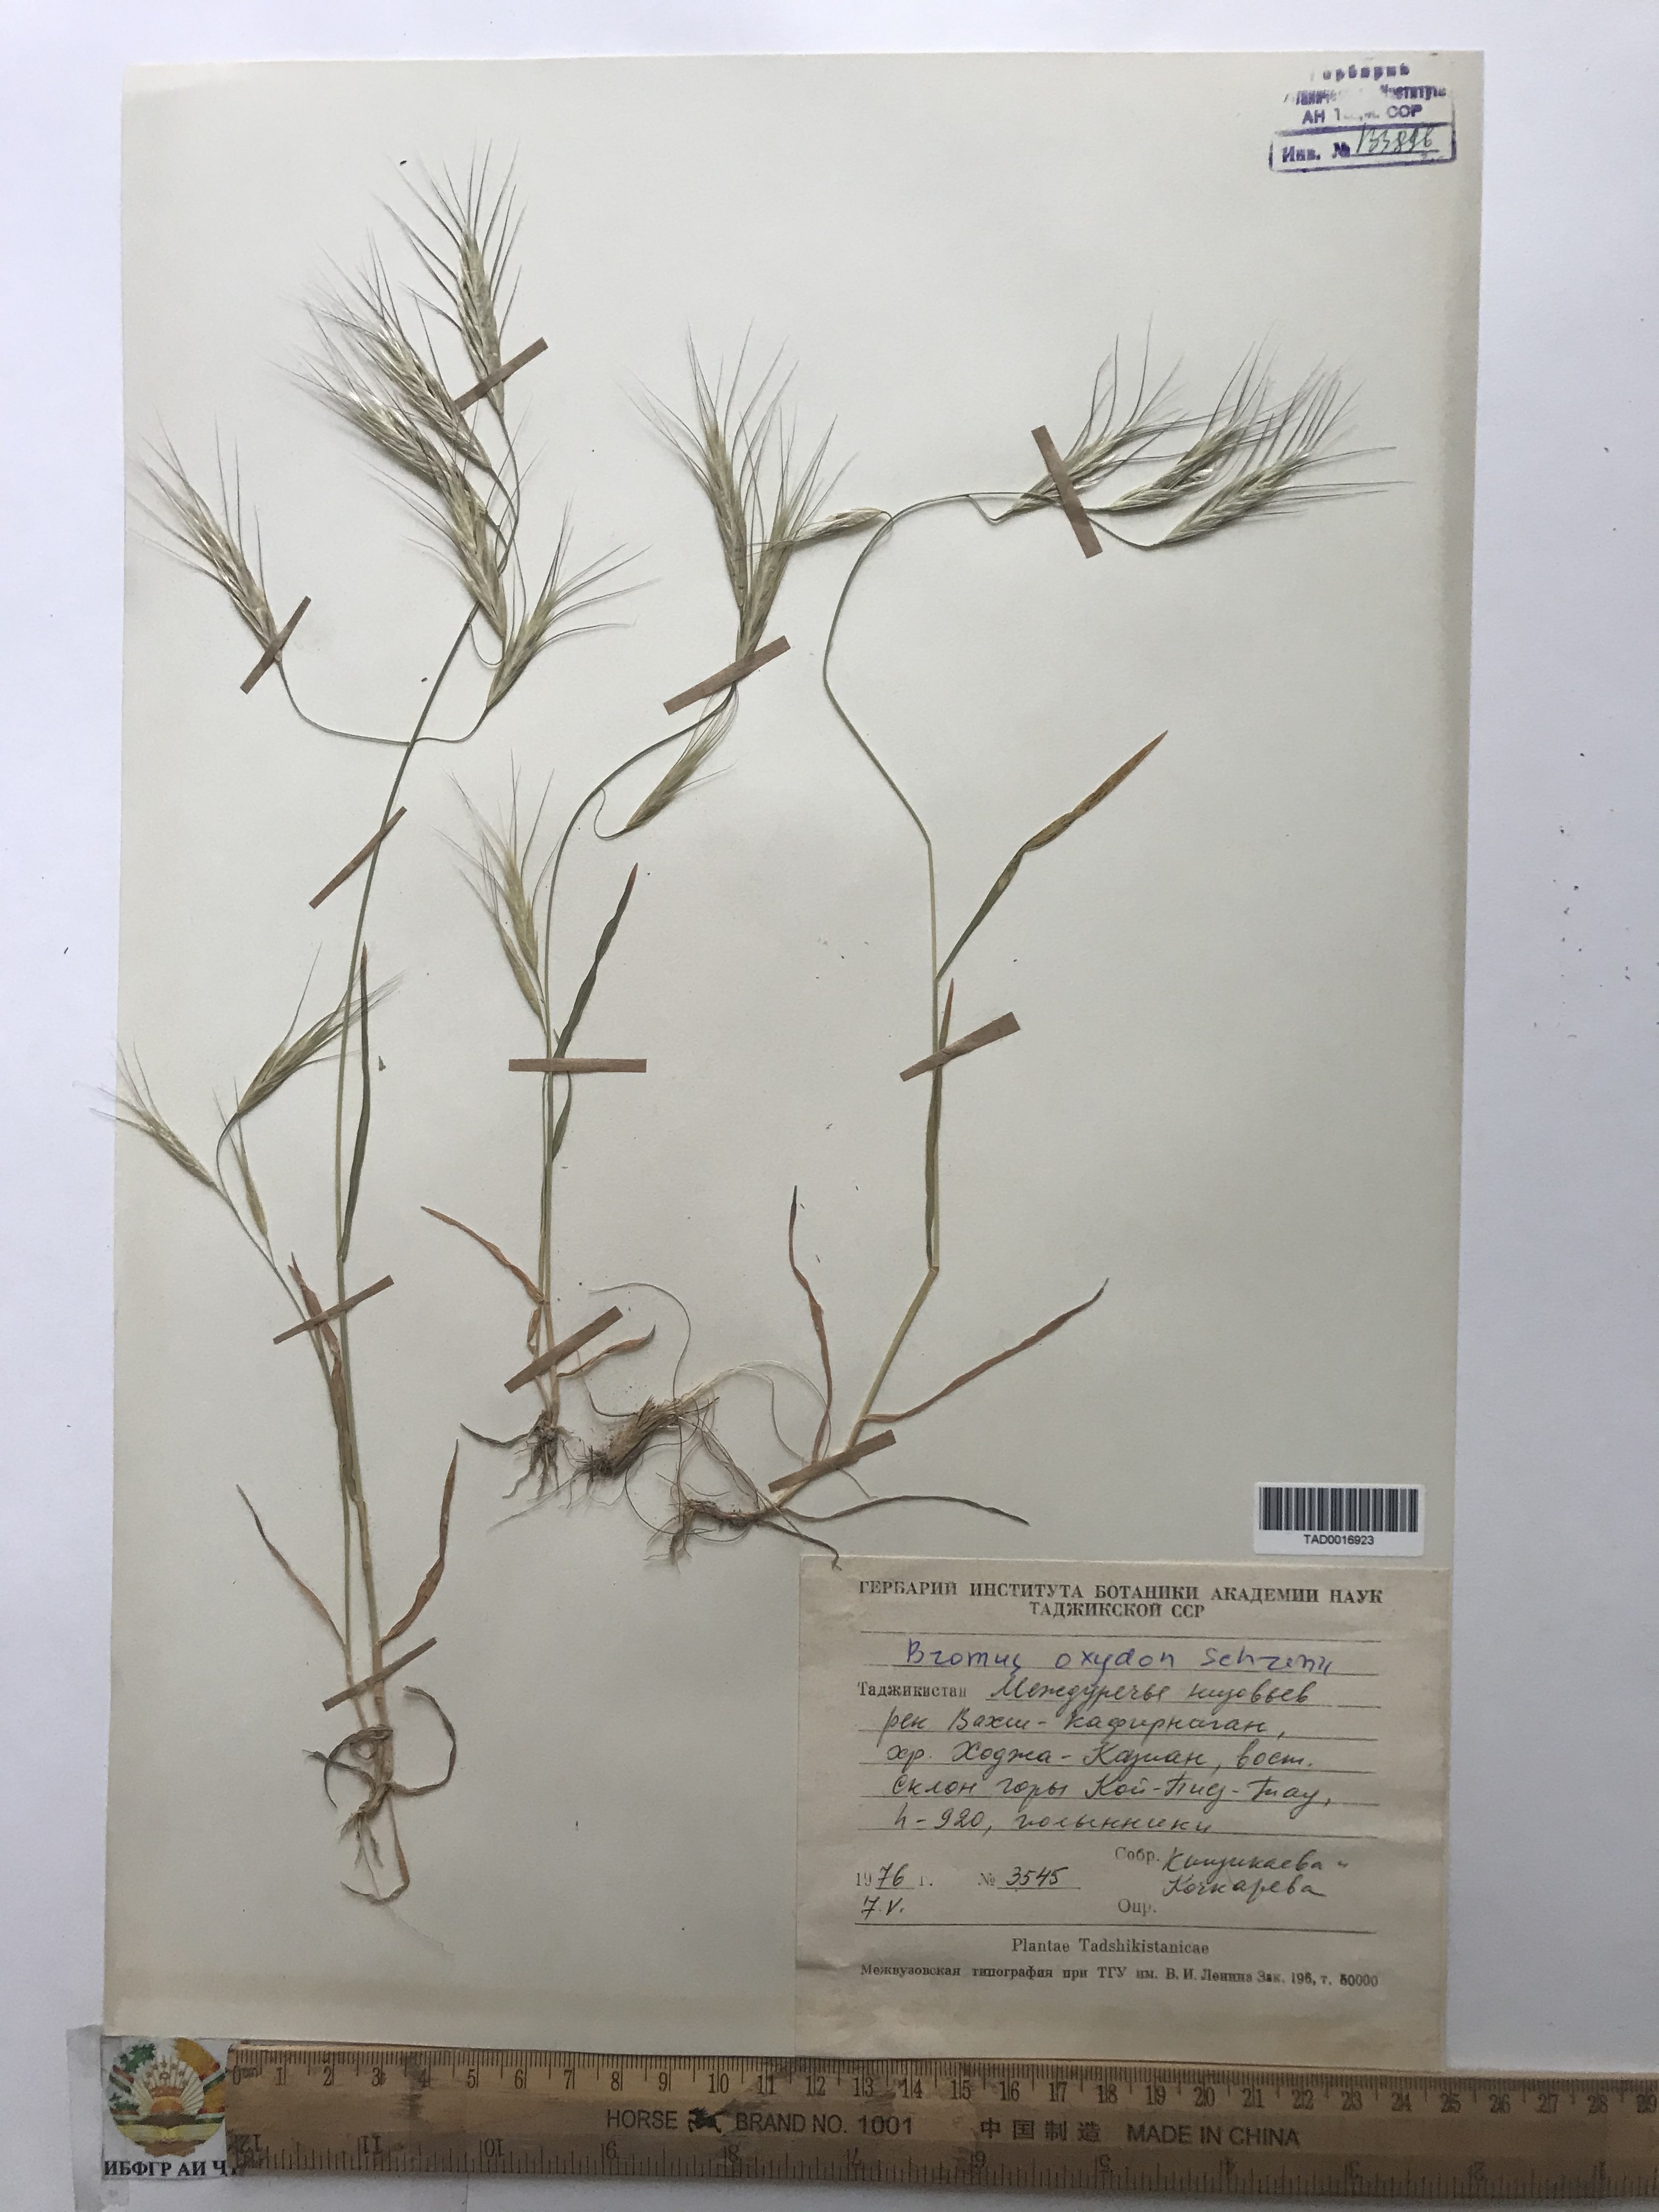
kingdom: Plantae
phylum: Tracheophyta
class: Liliopsida
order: Poales
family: Poaceae
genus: Bromus
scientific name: Bromus oxyodon
